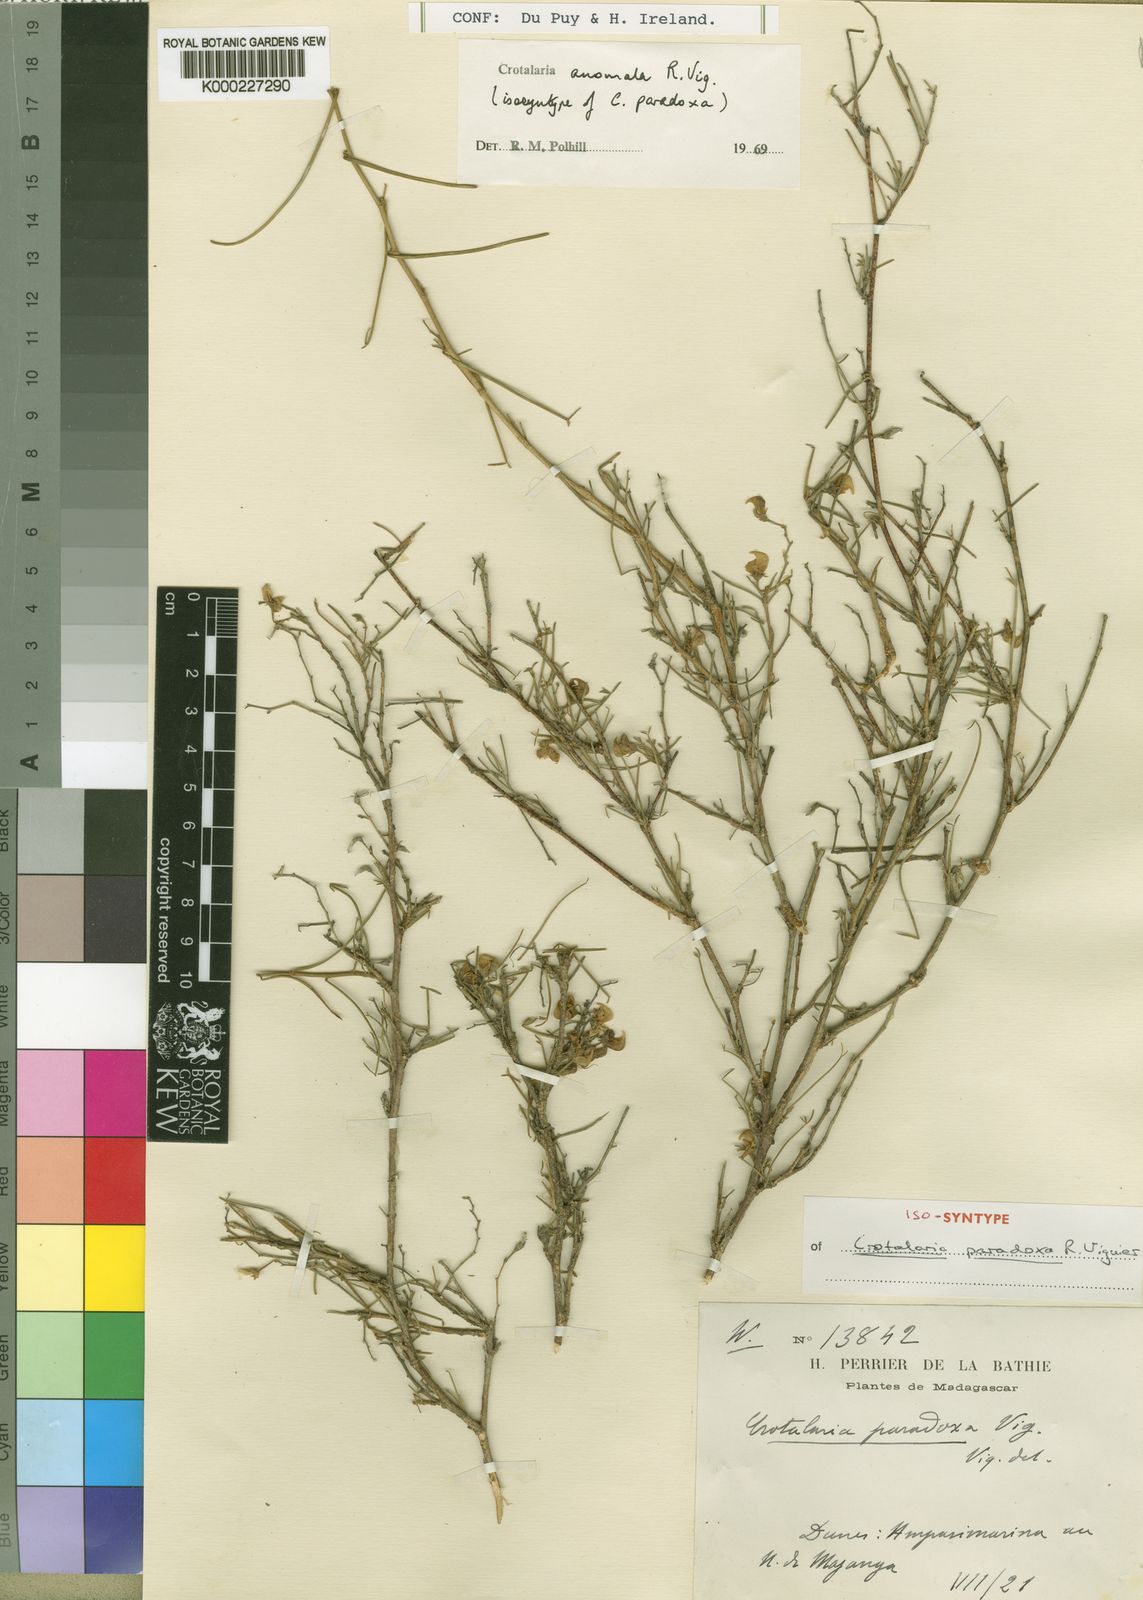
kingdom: Plantae
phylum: Tracheophyta
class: Magnoliopsida
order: Fabales
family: Fabaceae
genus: Crotalaria
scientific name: Crotalaria anomala
